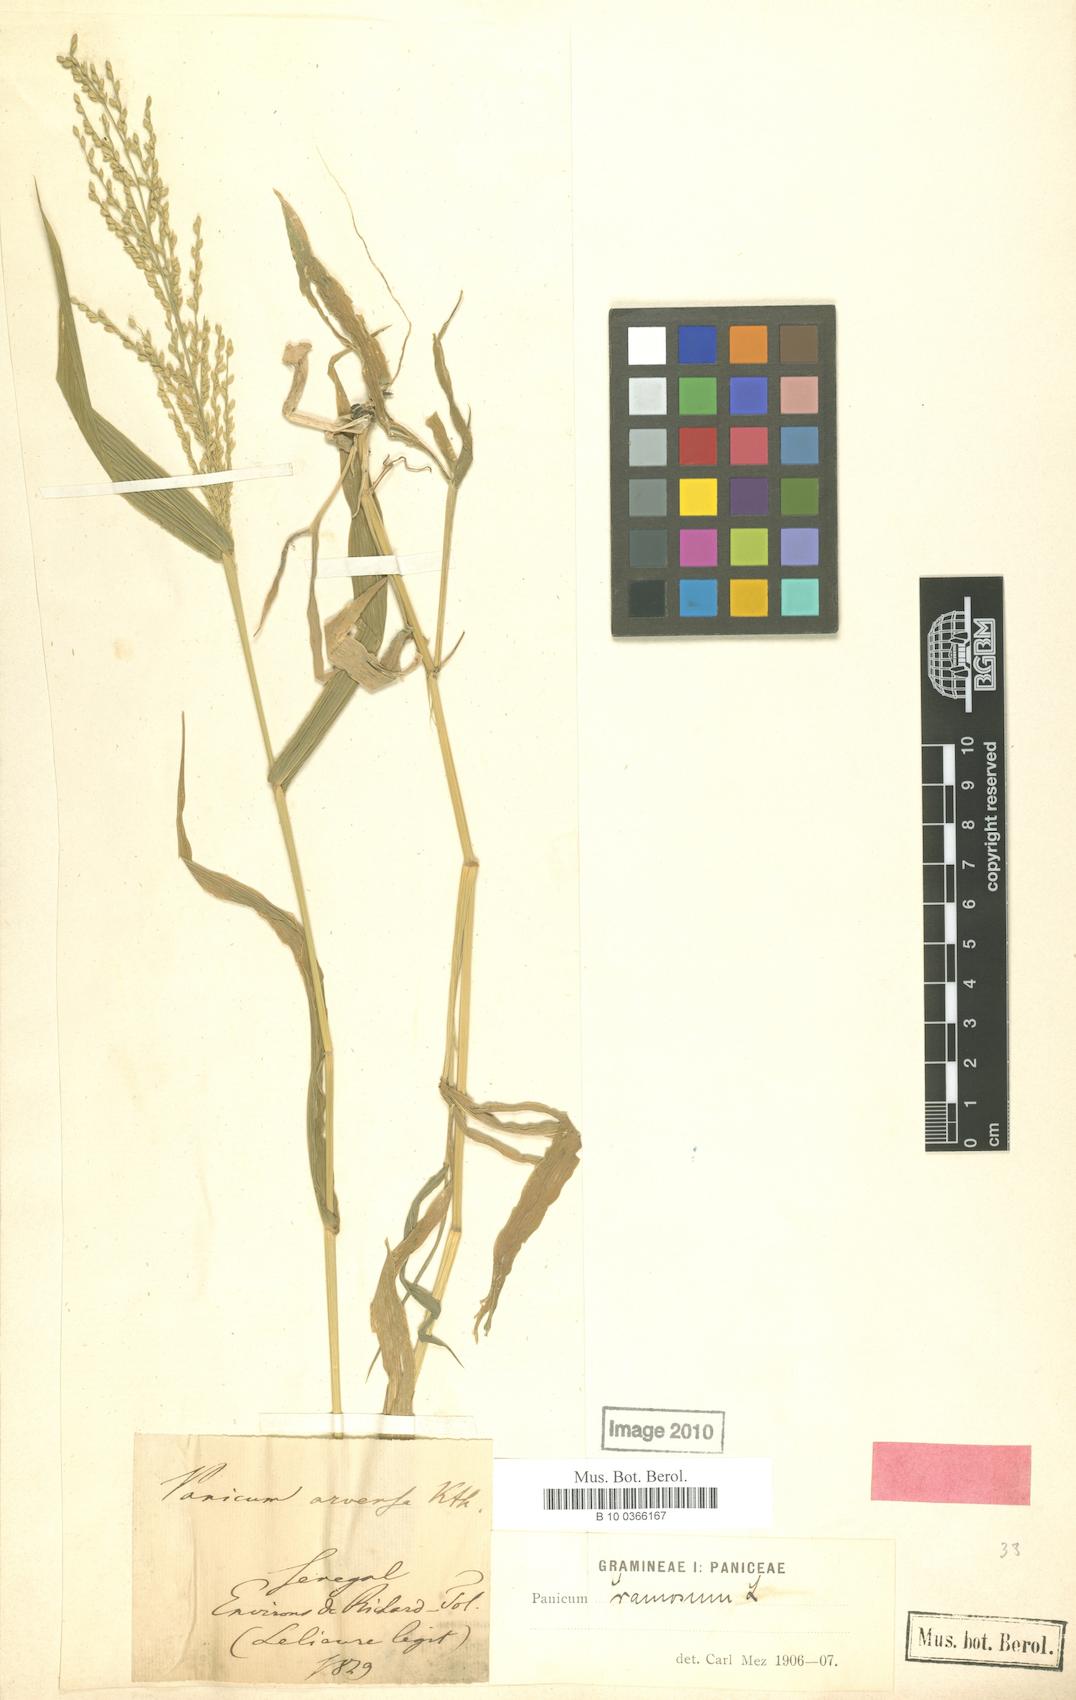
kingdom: Plantae
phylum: Tracheophyta
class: Liliopsida
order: Poales
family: Poaceae
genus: Urochloa
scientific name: Urochloa ramosa
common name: Browntop millet
